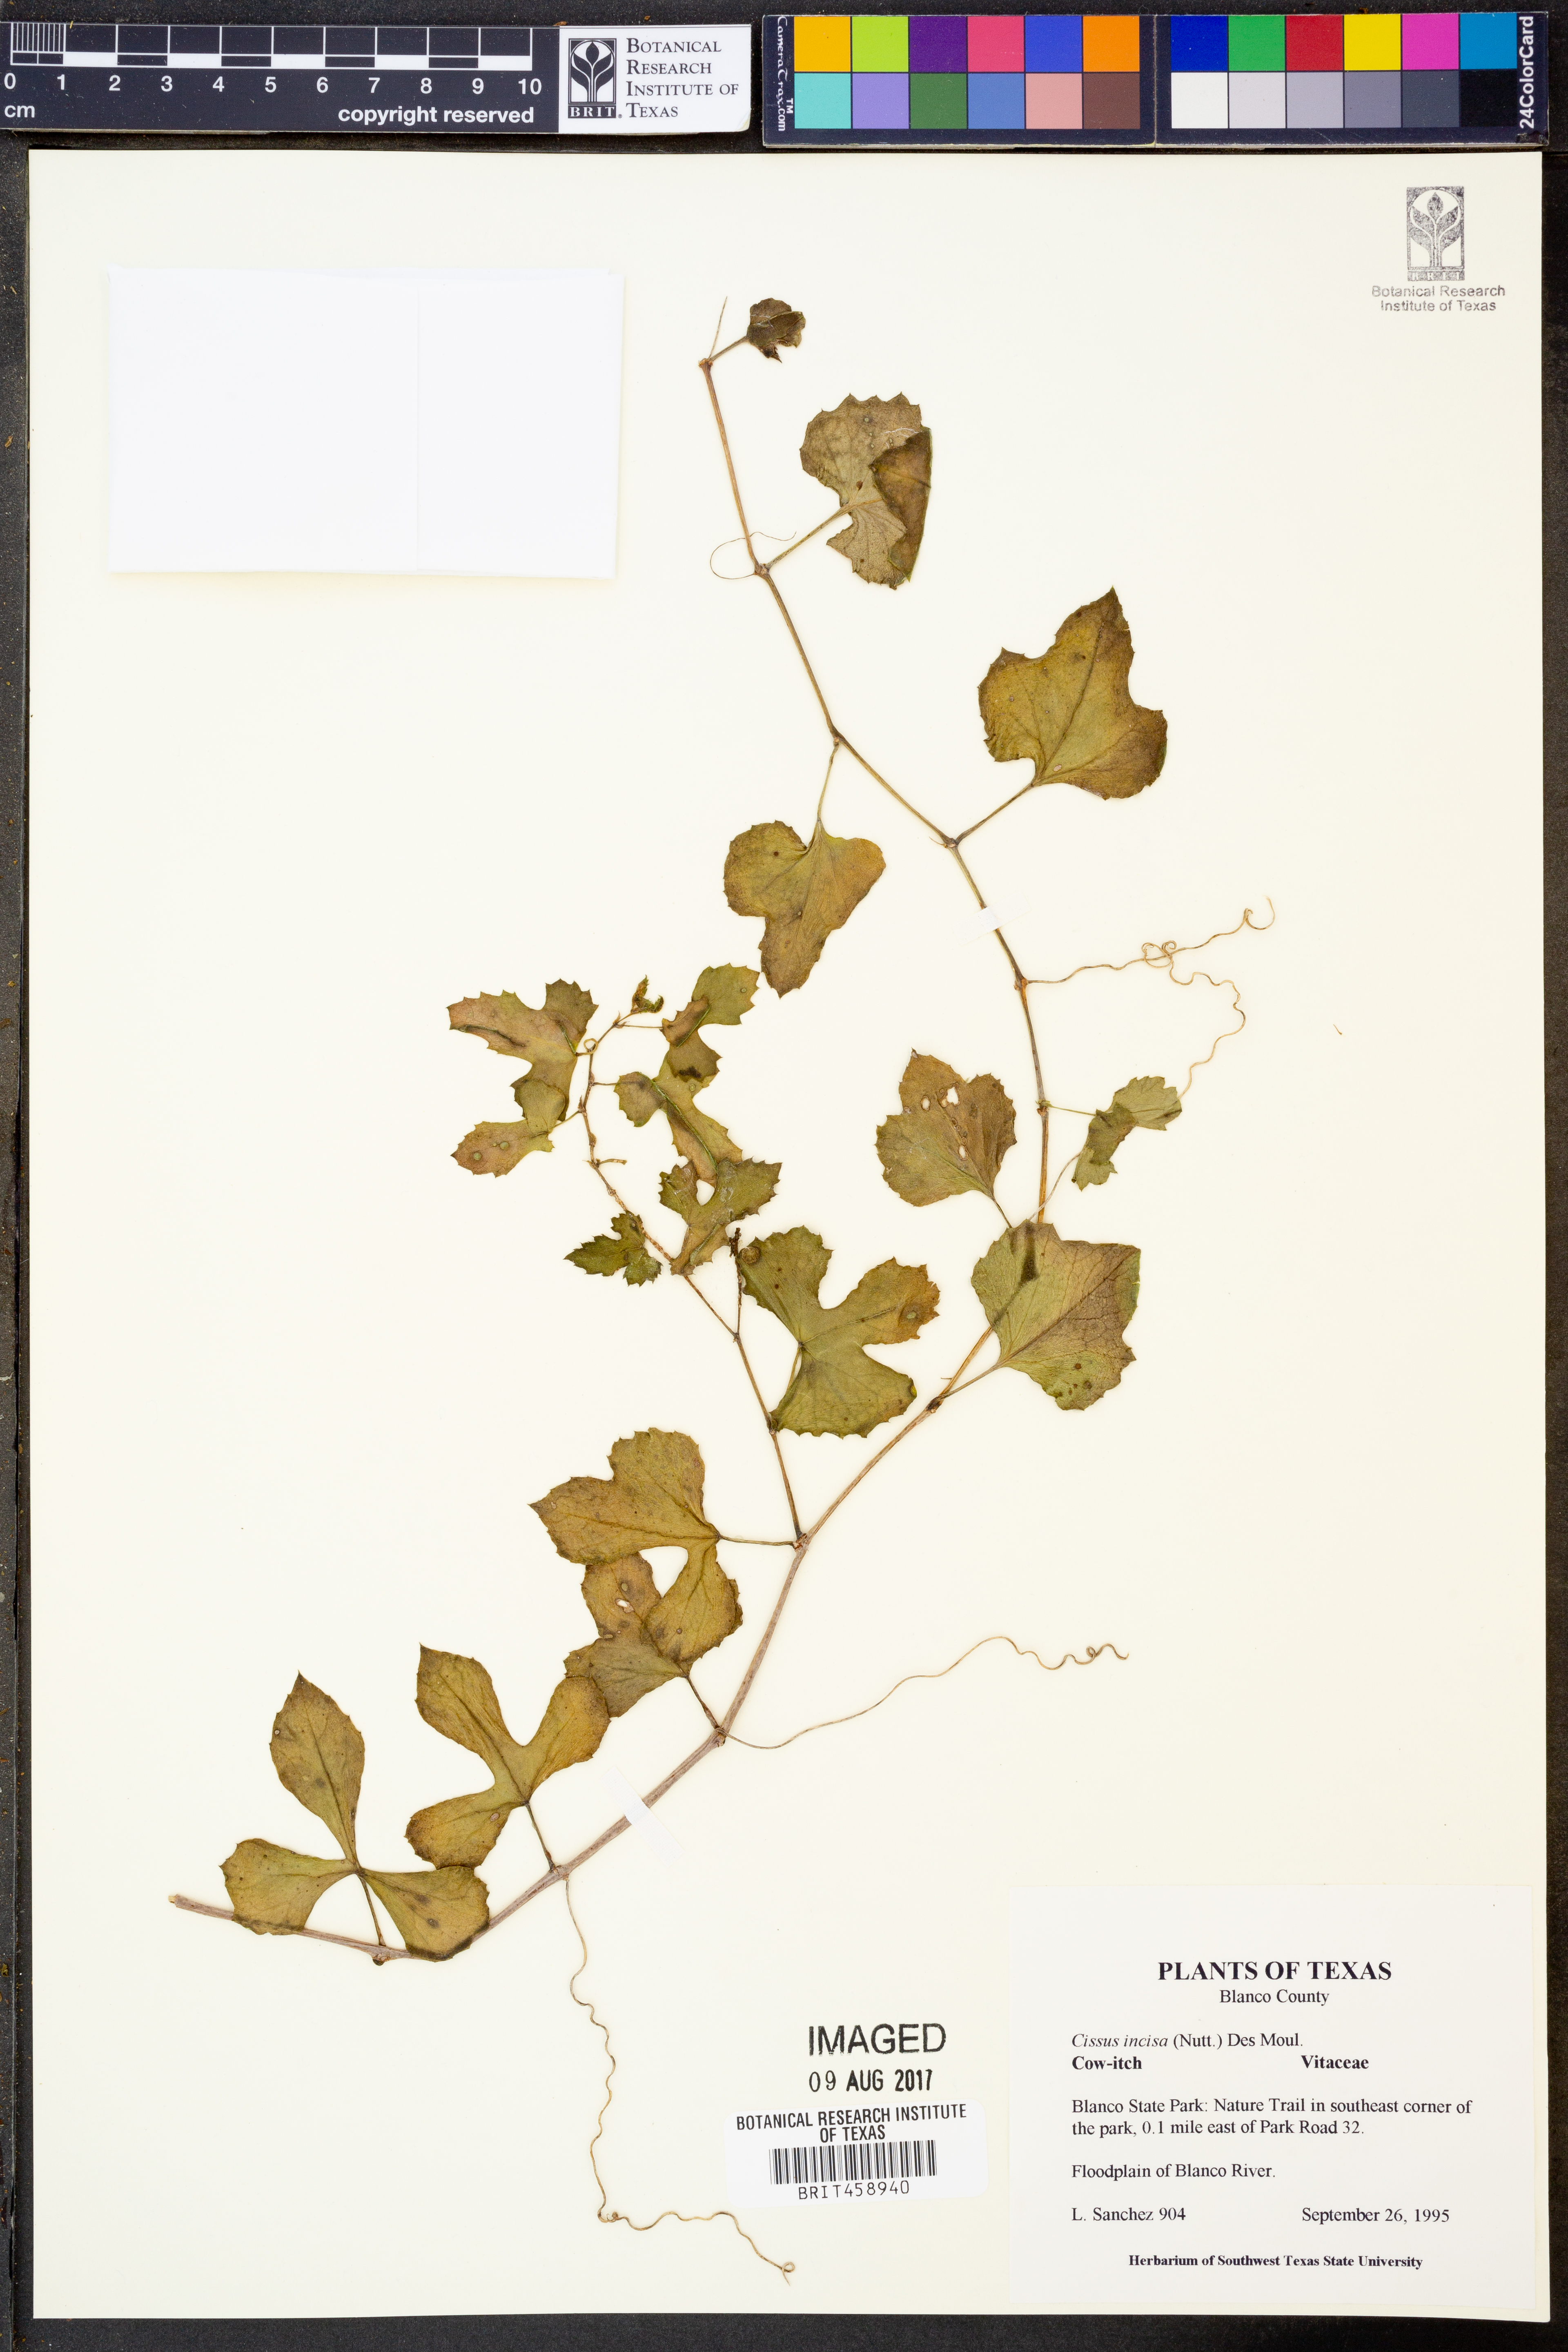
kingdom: Plantae
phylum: Tracheophyta
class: Magnoliopsida
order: Vitales
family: Vitaceae
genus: Cissus
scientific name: Cissus trifoliata
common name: Vine-sorrel
